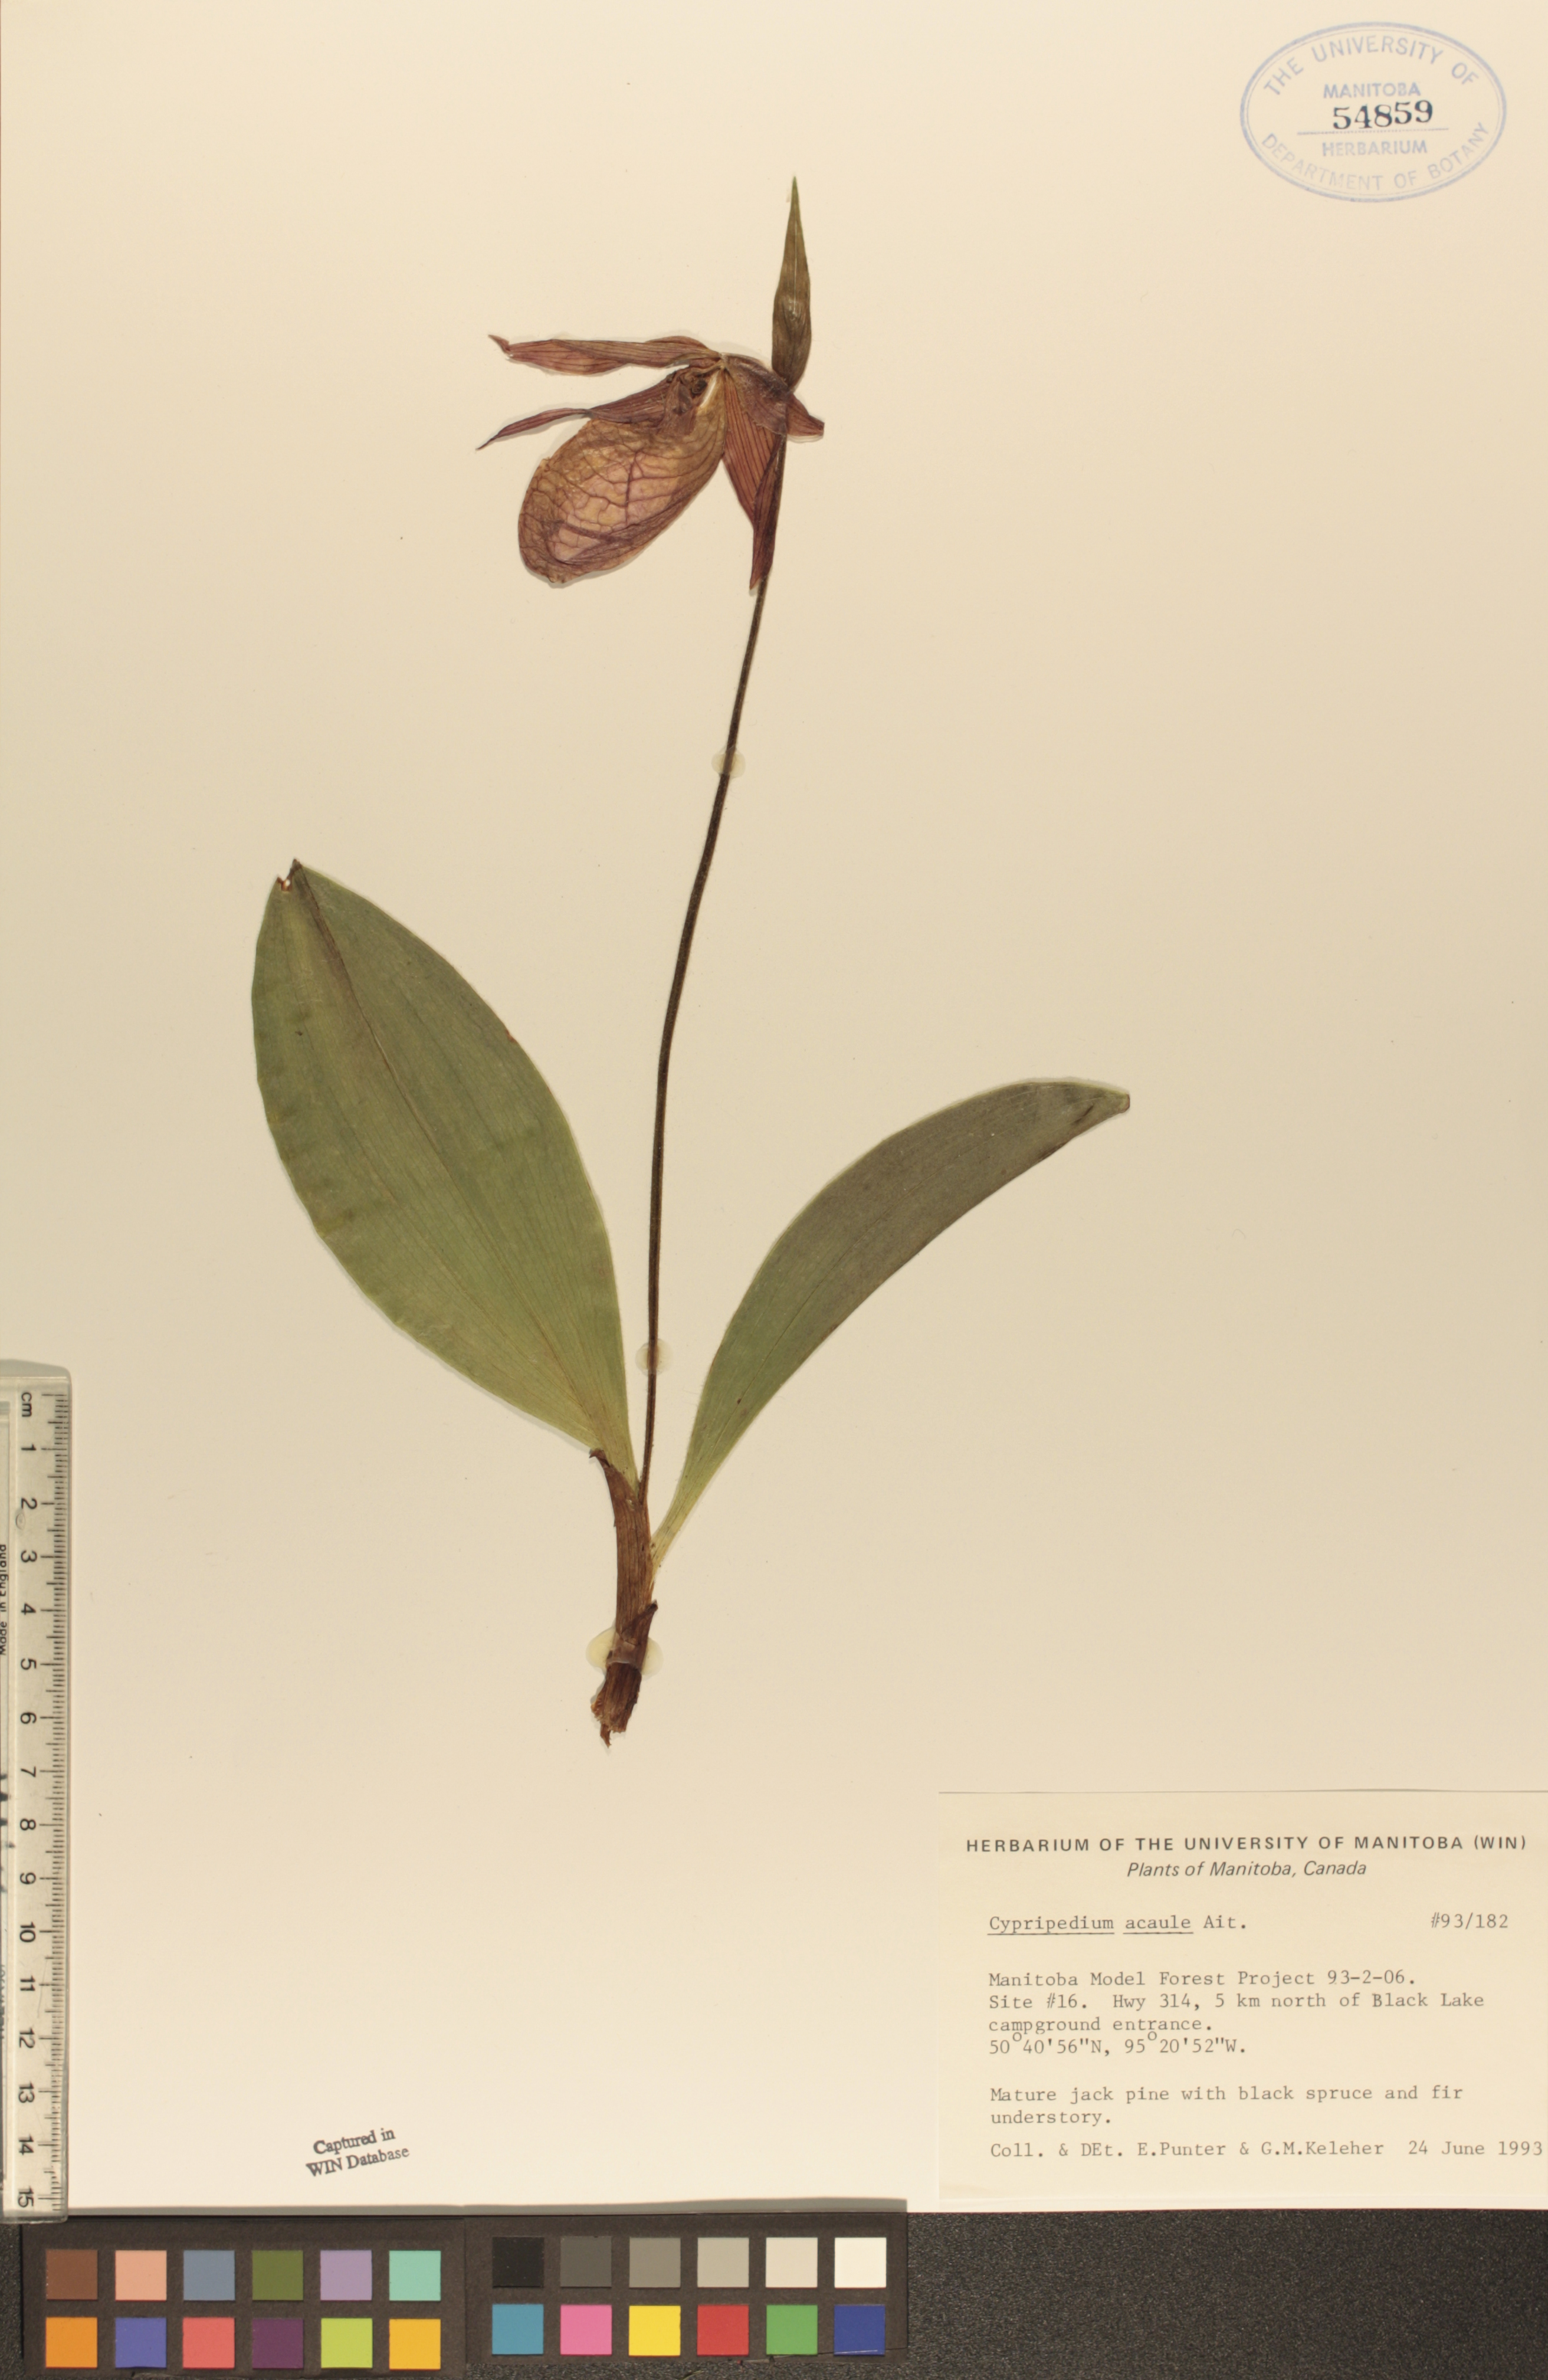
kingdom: Plantae
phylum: Tracheophyta
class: Liliopsida
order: Asparagales
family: Orchidaceae
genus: Cypripedium
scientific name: Cypripedium acaule
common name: Pink lady's-slipper
